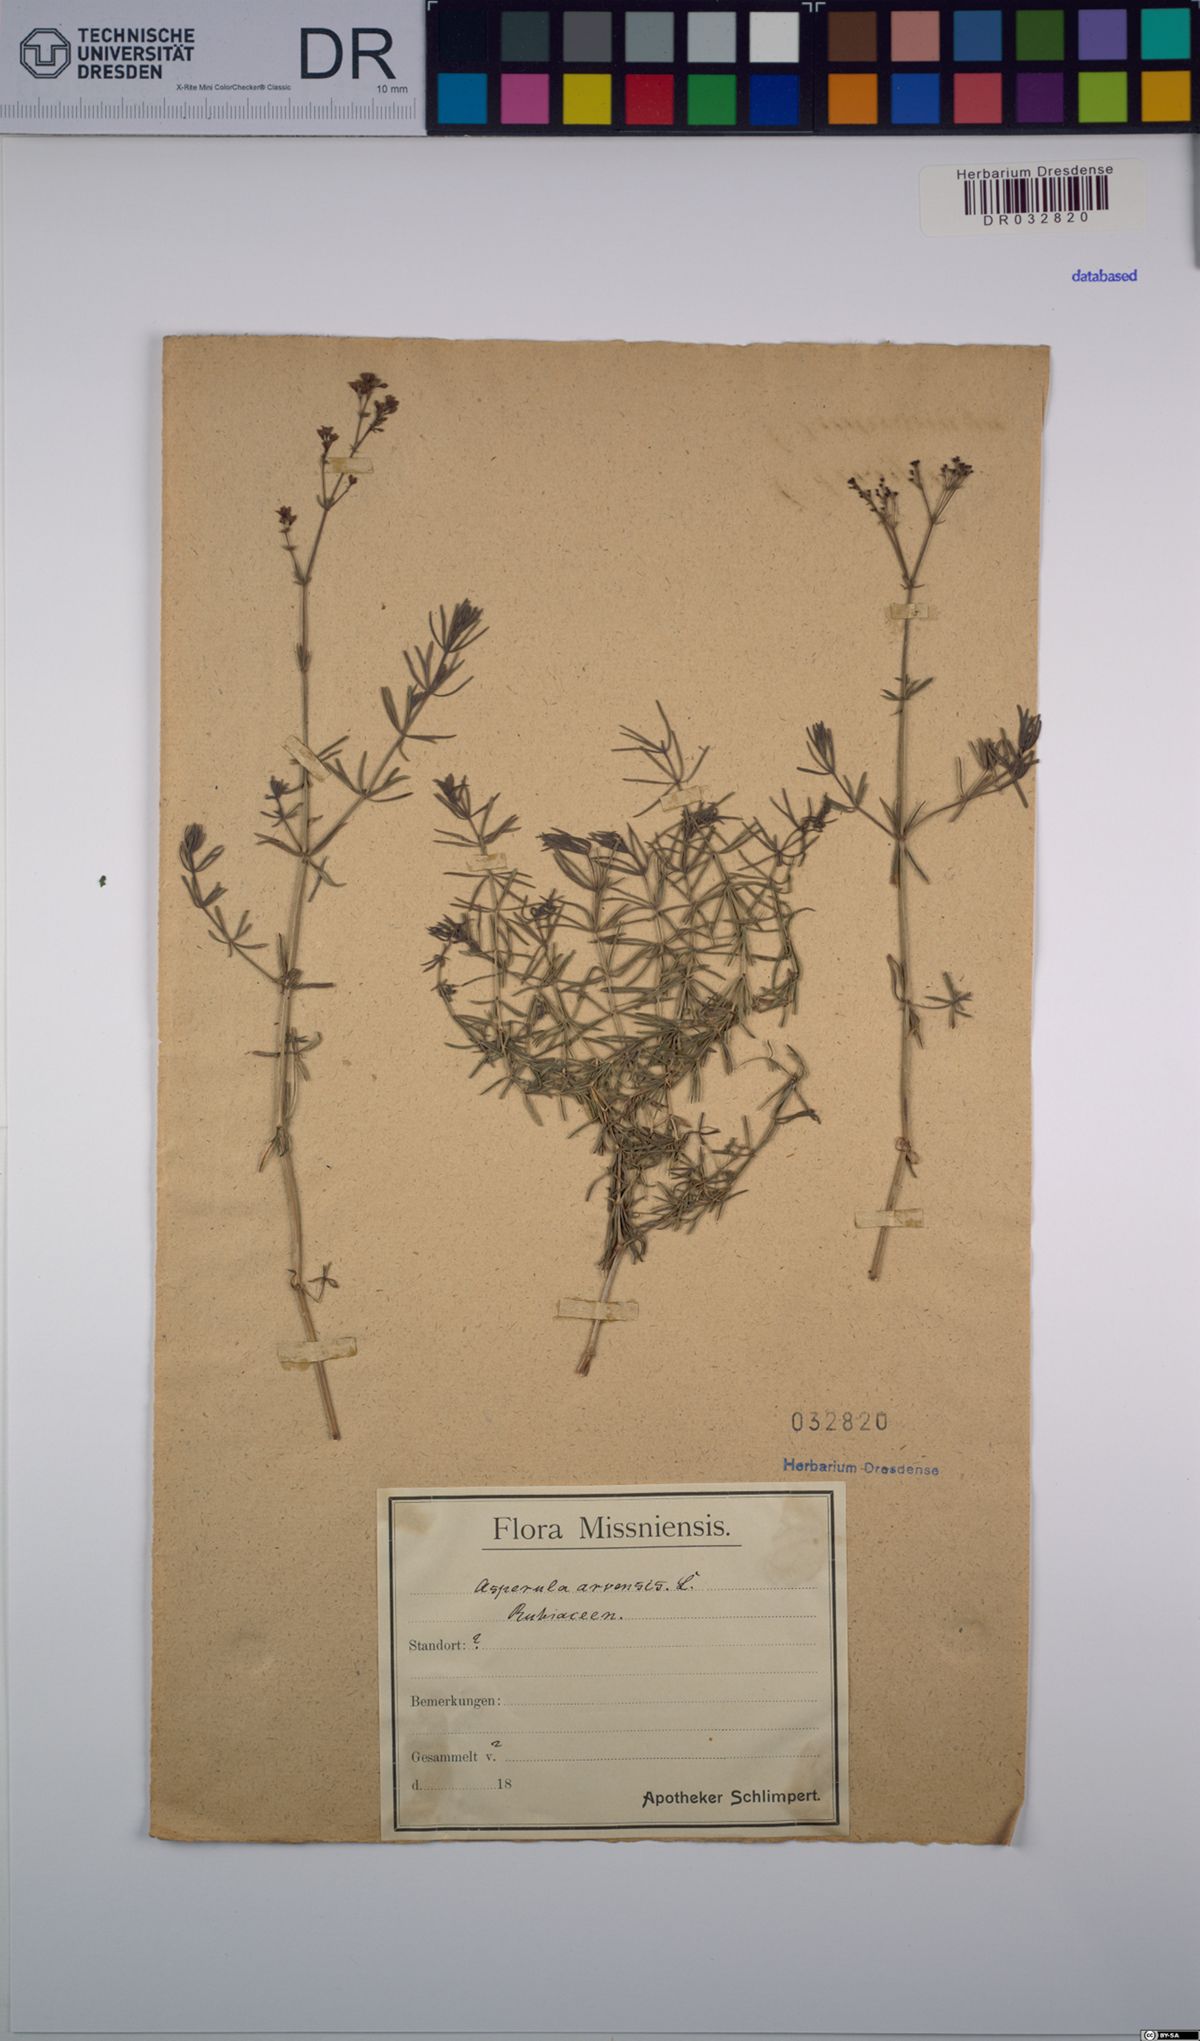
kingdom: Plantae
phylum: Tracheophyta
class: Magnoliopsida
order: Gentianales
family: Rubiaceae
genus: Asperula
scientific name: Asperula arvensis
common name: Blue woodruff
